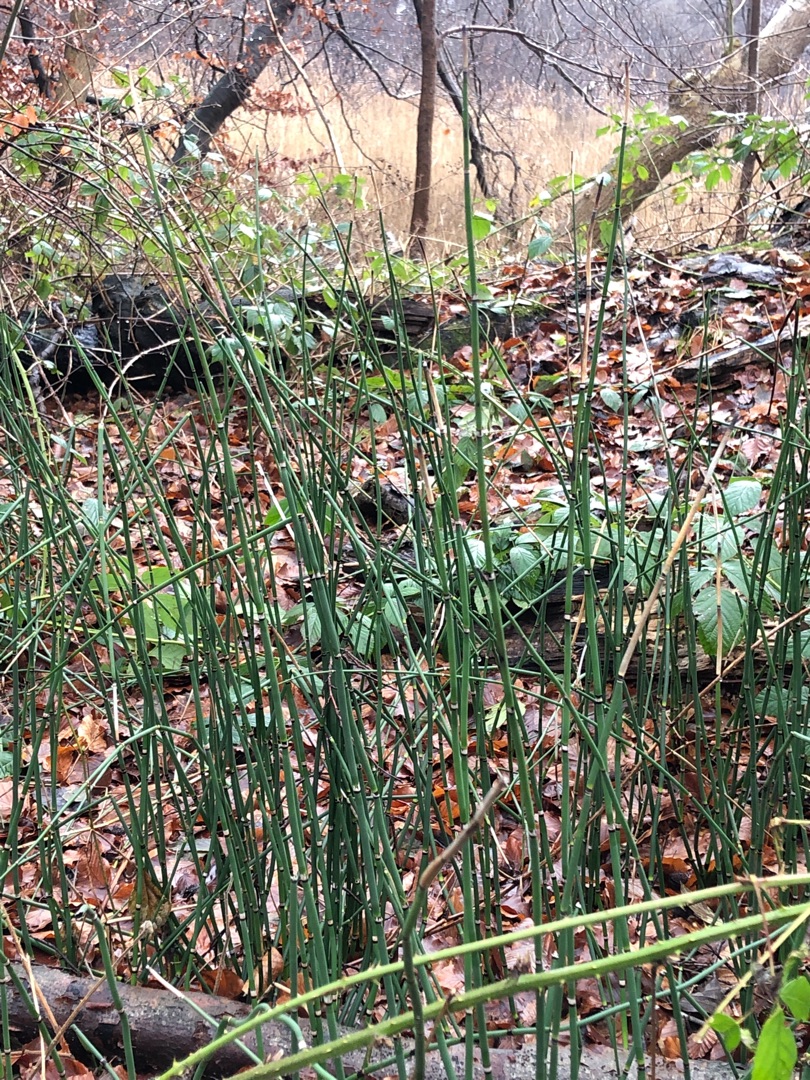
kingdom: Plantae
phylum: Tracheophyta
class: Polypodiopsida
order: Equisetales
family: Equisetaceae
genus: Equisetum
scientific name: Equisetum hyemale
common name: Skavgræs
